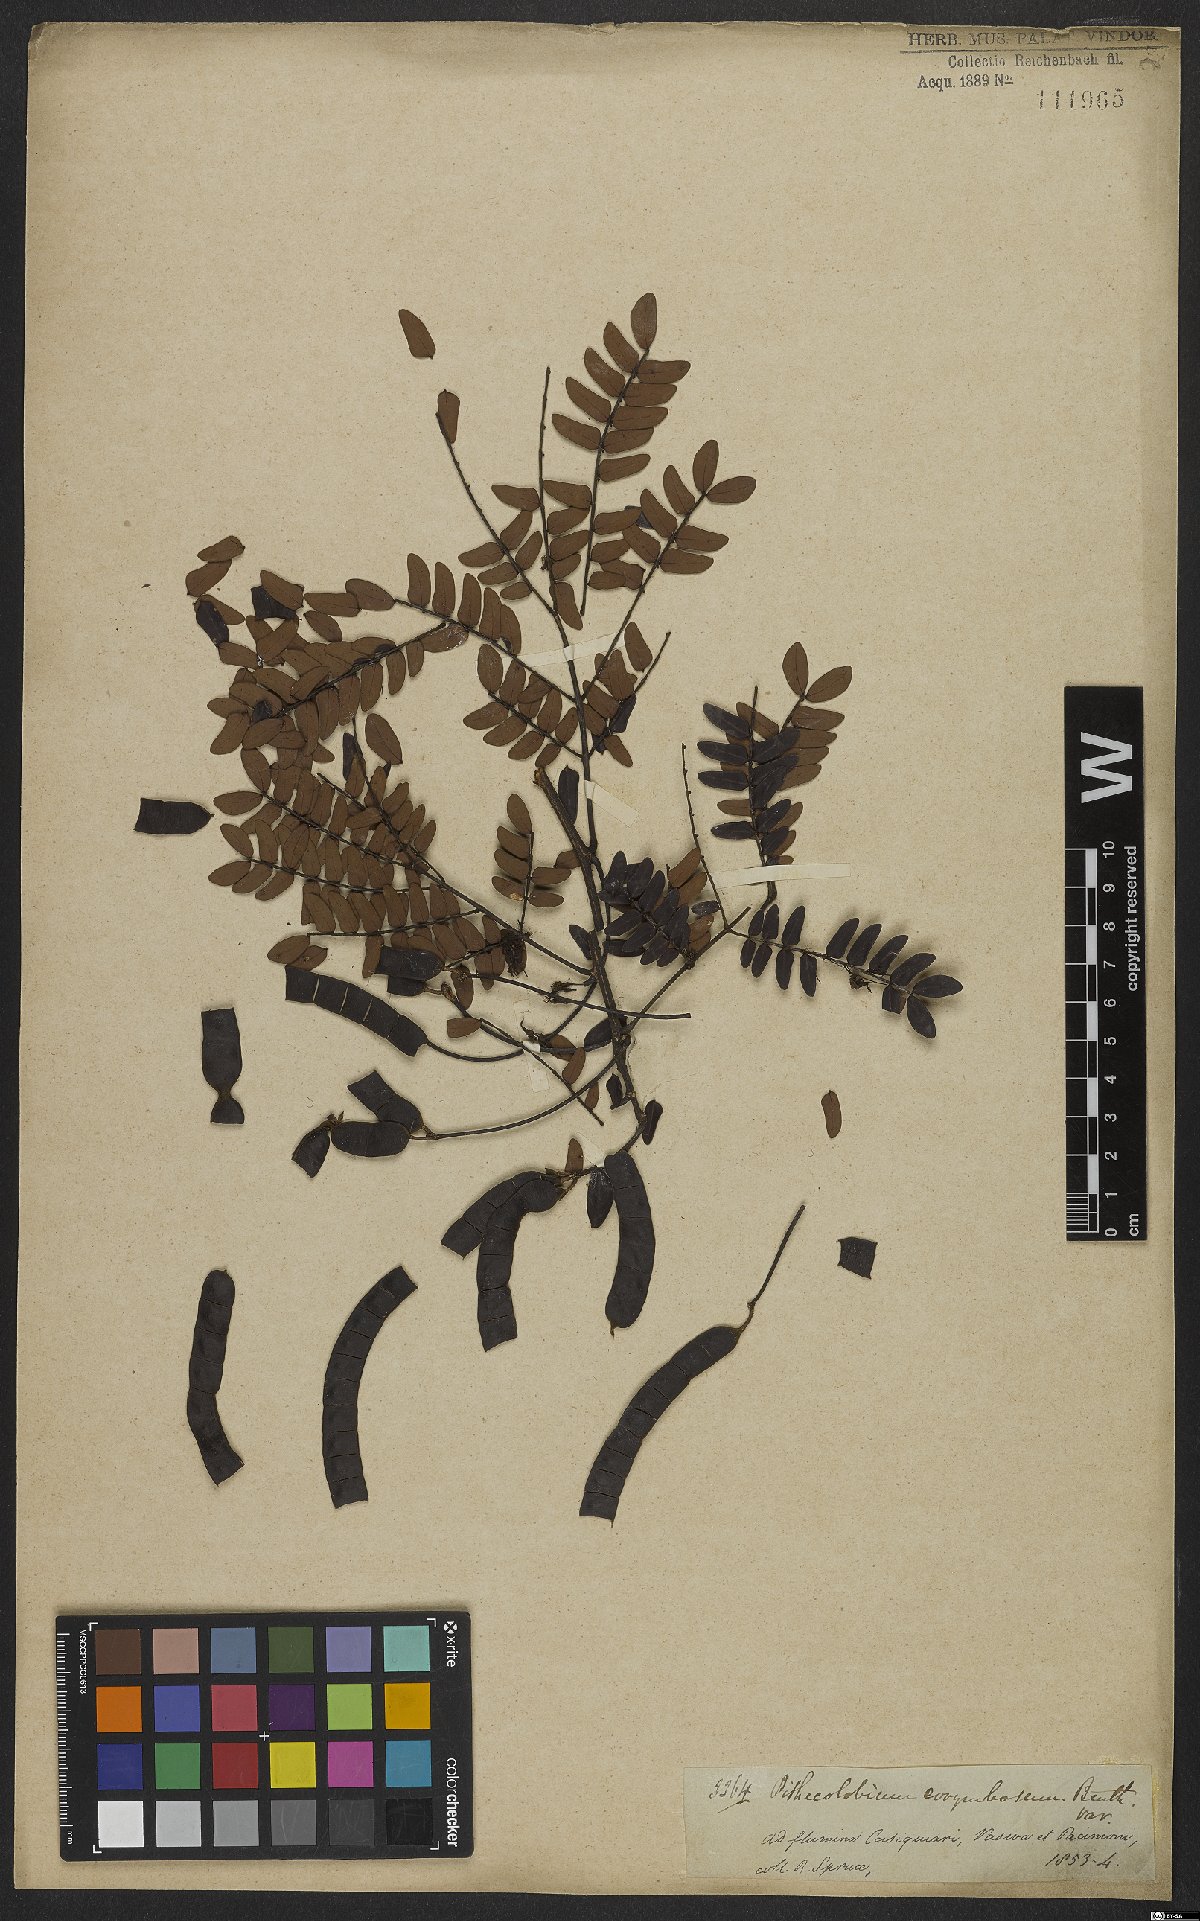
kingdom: Plantae
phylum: Tracheophyta
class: Magnoliopsida
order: Fabales
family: Fabaceae
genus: Hydrochorea
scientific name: Hydrochorea corymbosa
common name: Swamp manariballi
